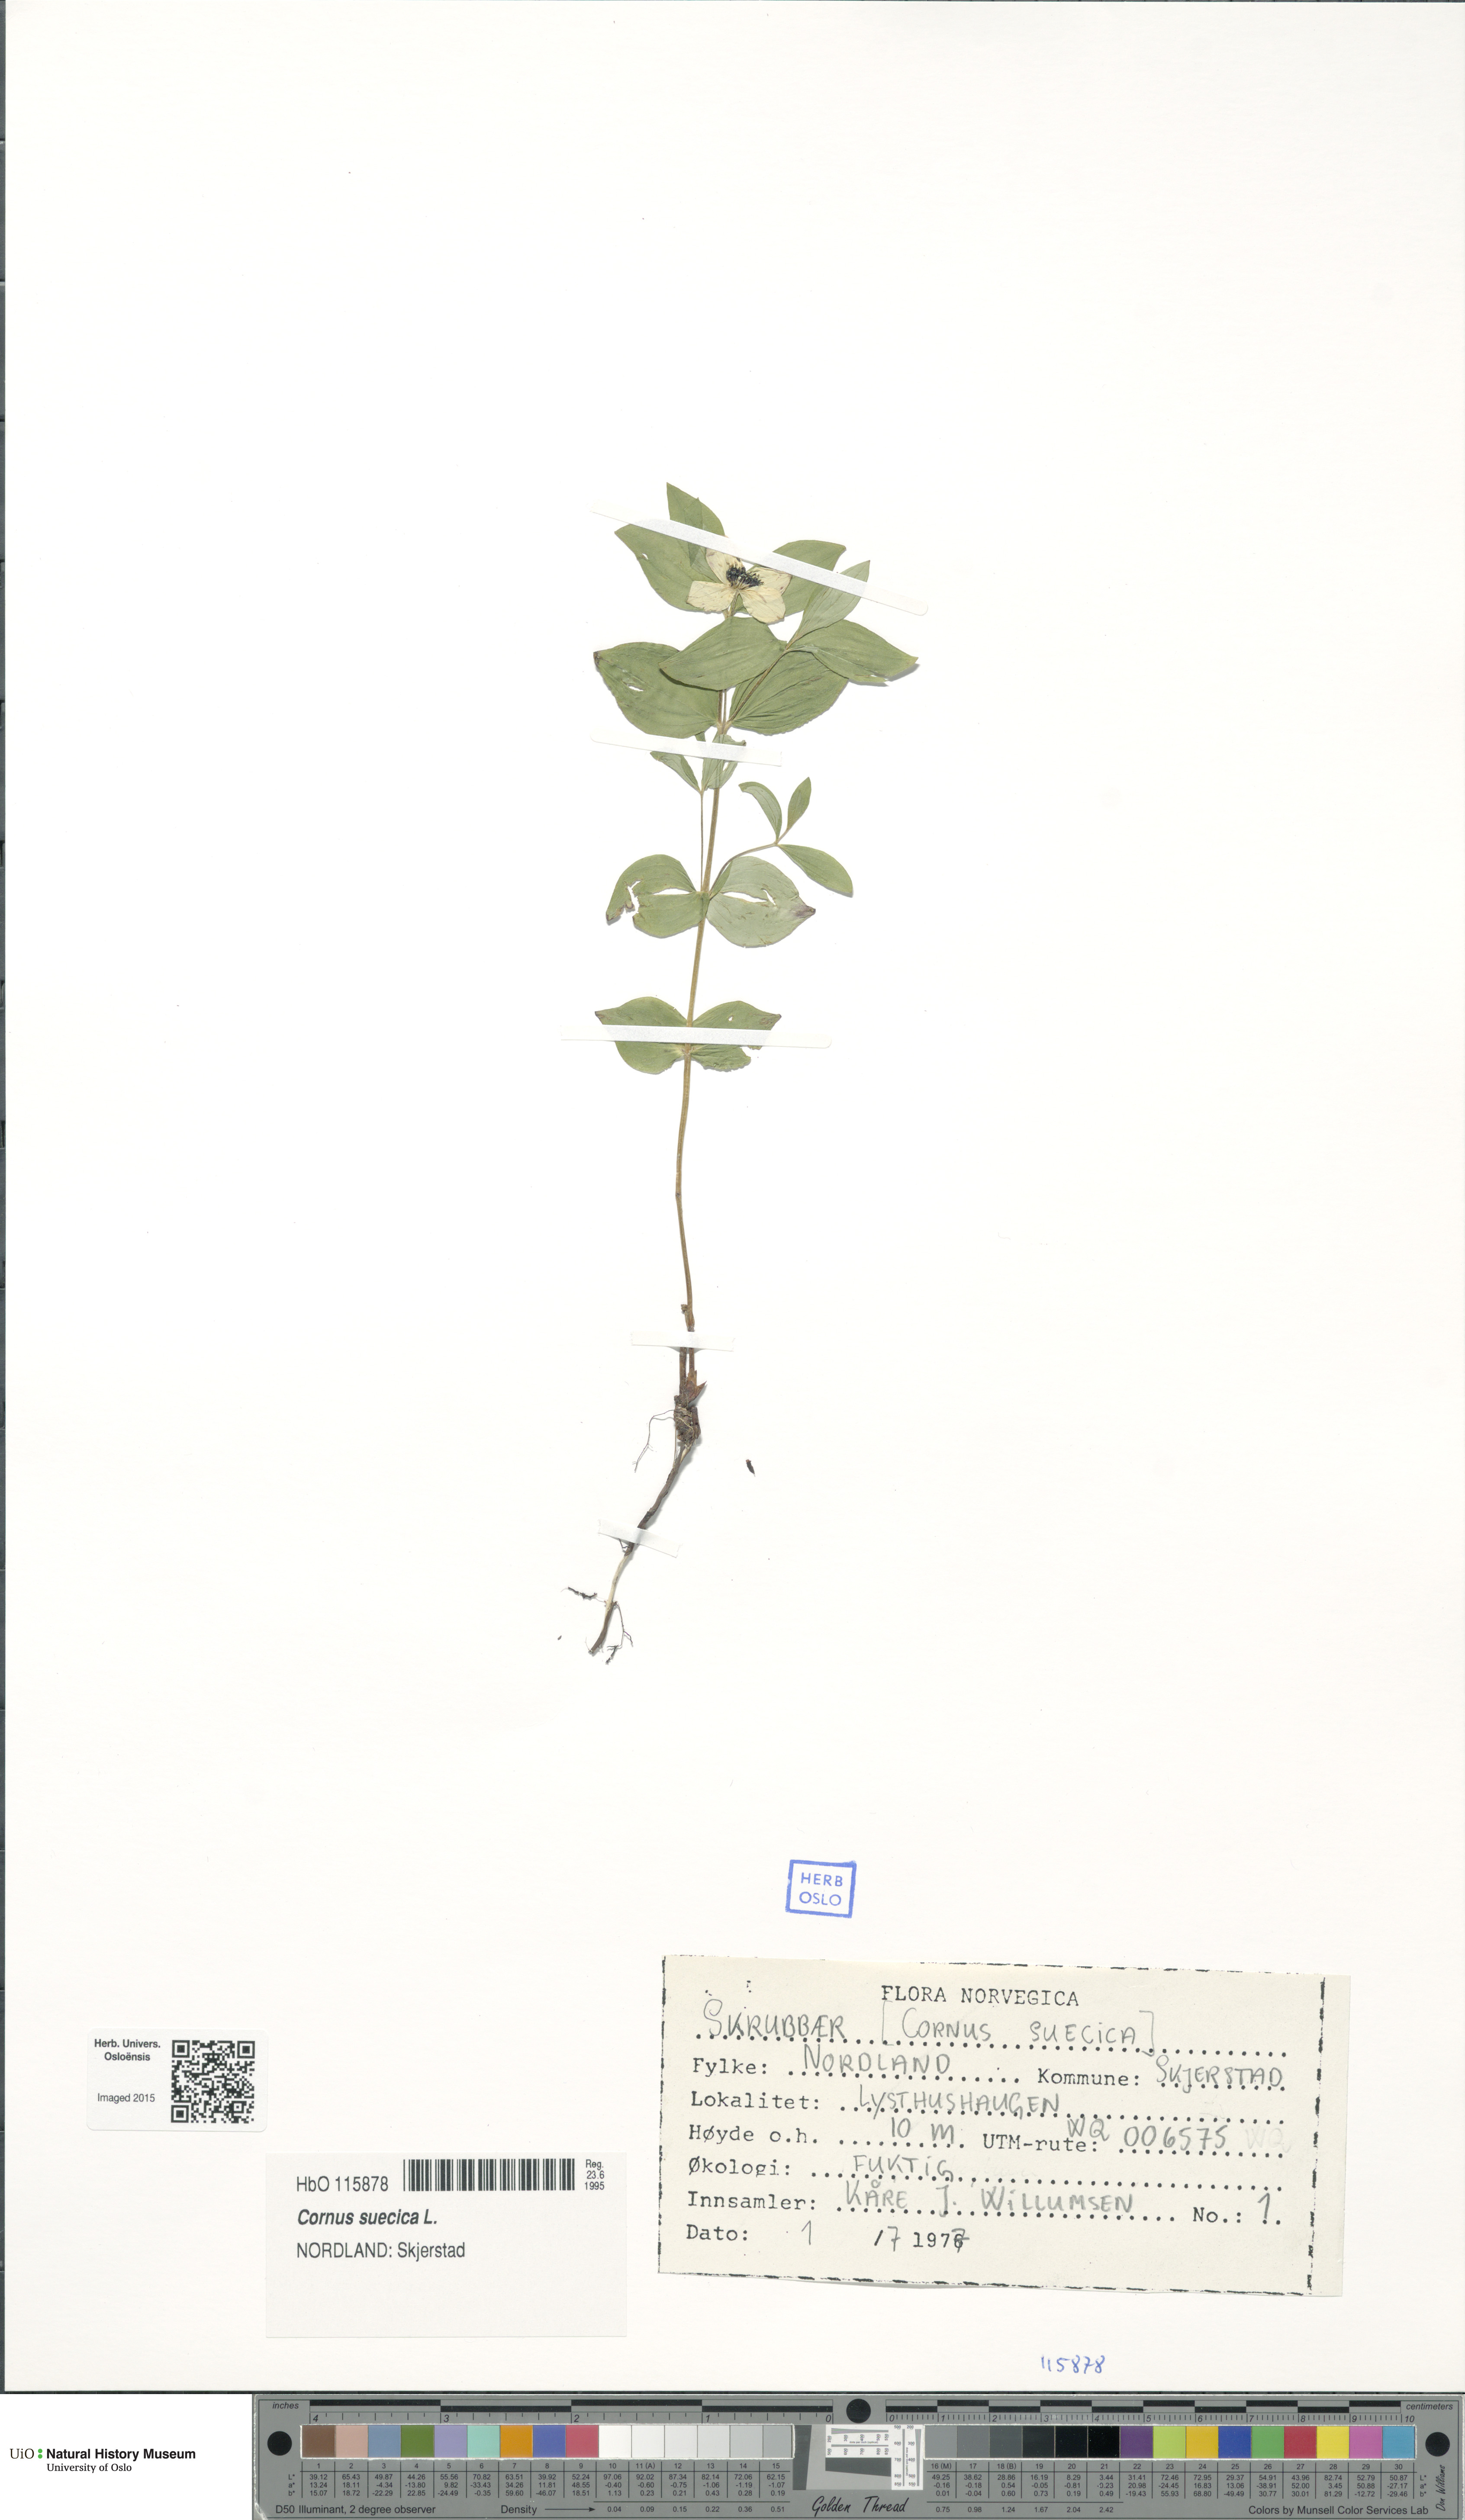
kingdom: Plantae
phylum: Tracheophyta
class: Magnoliopsida
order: Cornales
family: Cornaceae
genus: Cornus
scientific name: Cornus suecica
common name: Dwarf cornel
